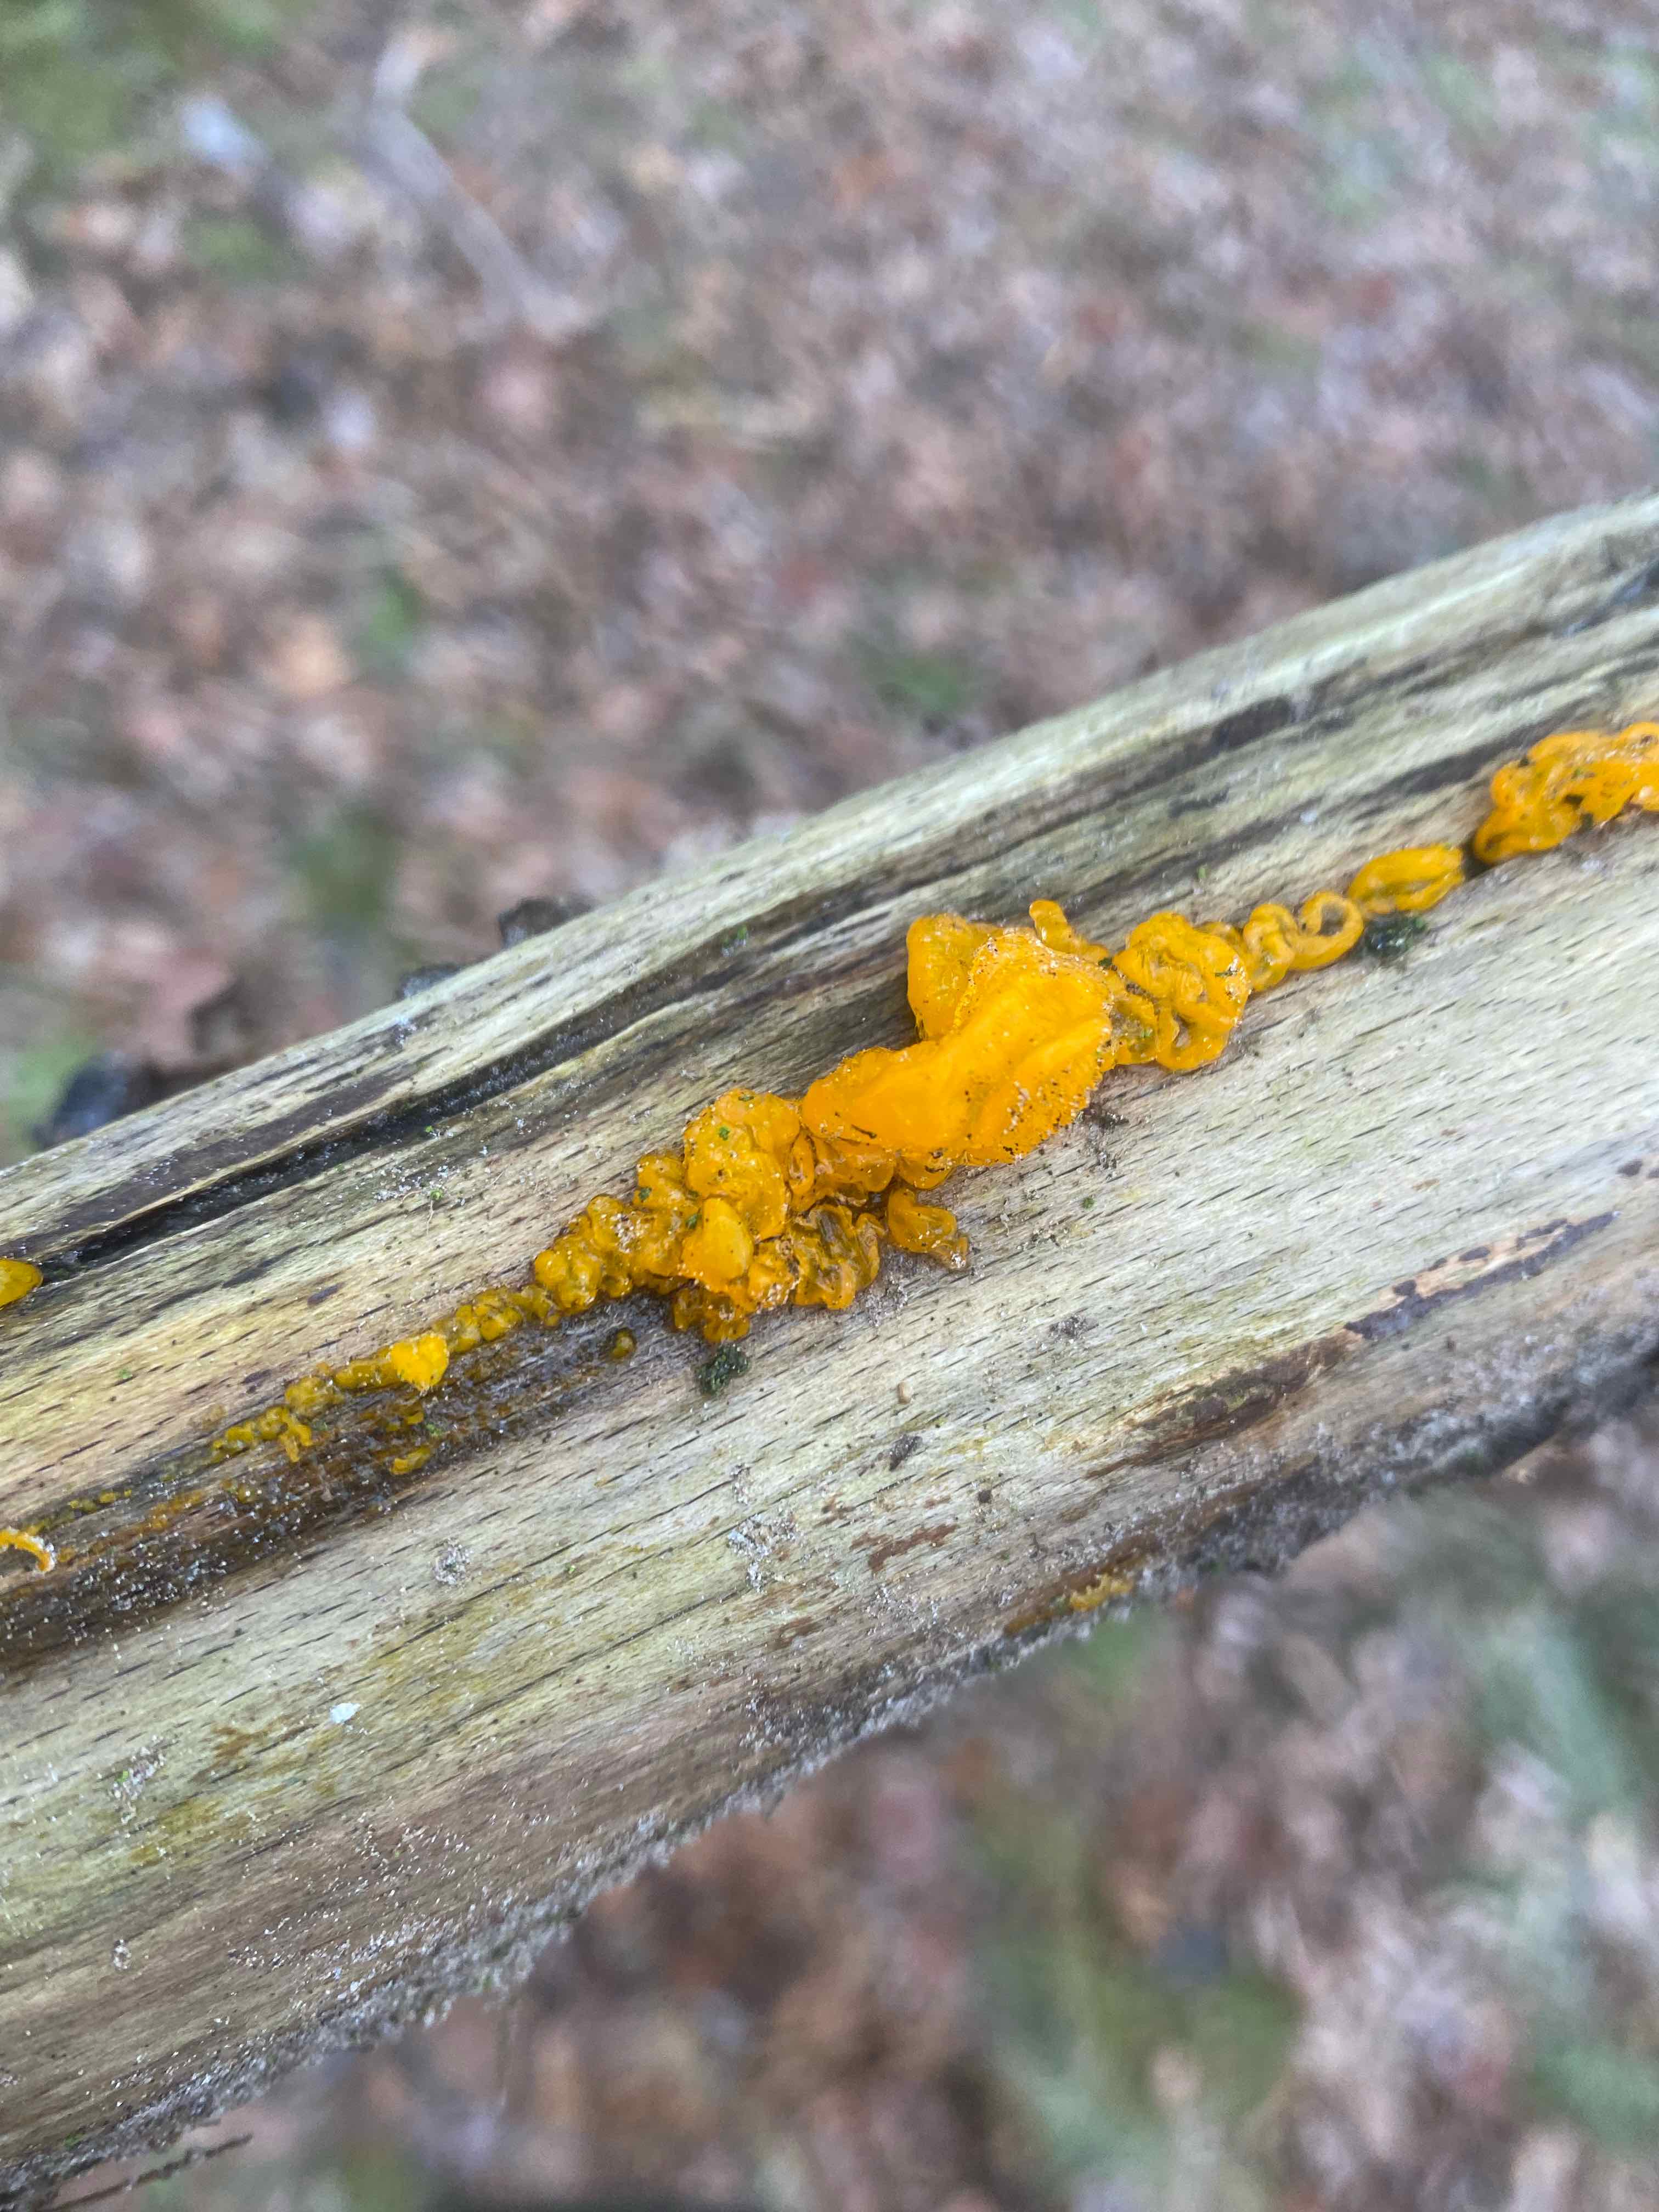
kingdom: Fungi
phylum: Basidiomycota
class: Tremellomycetes
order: Tremellales
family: Tremellaceae
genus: Tremella
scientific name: Tremella mesenterica
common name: gul bævresvamp
